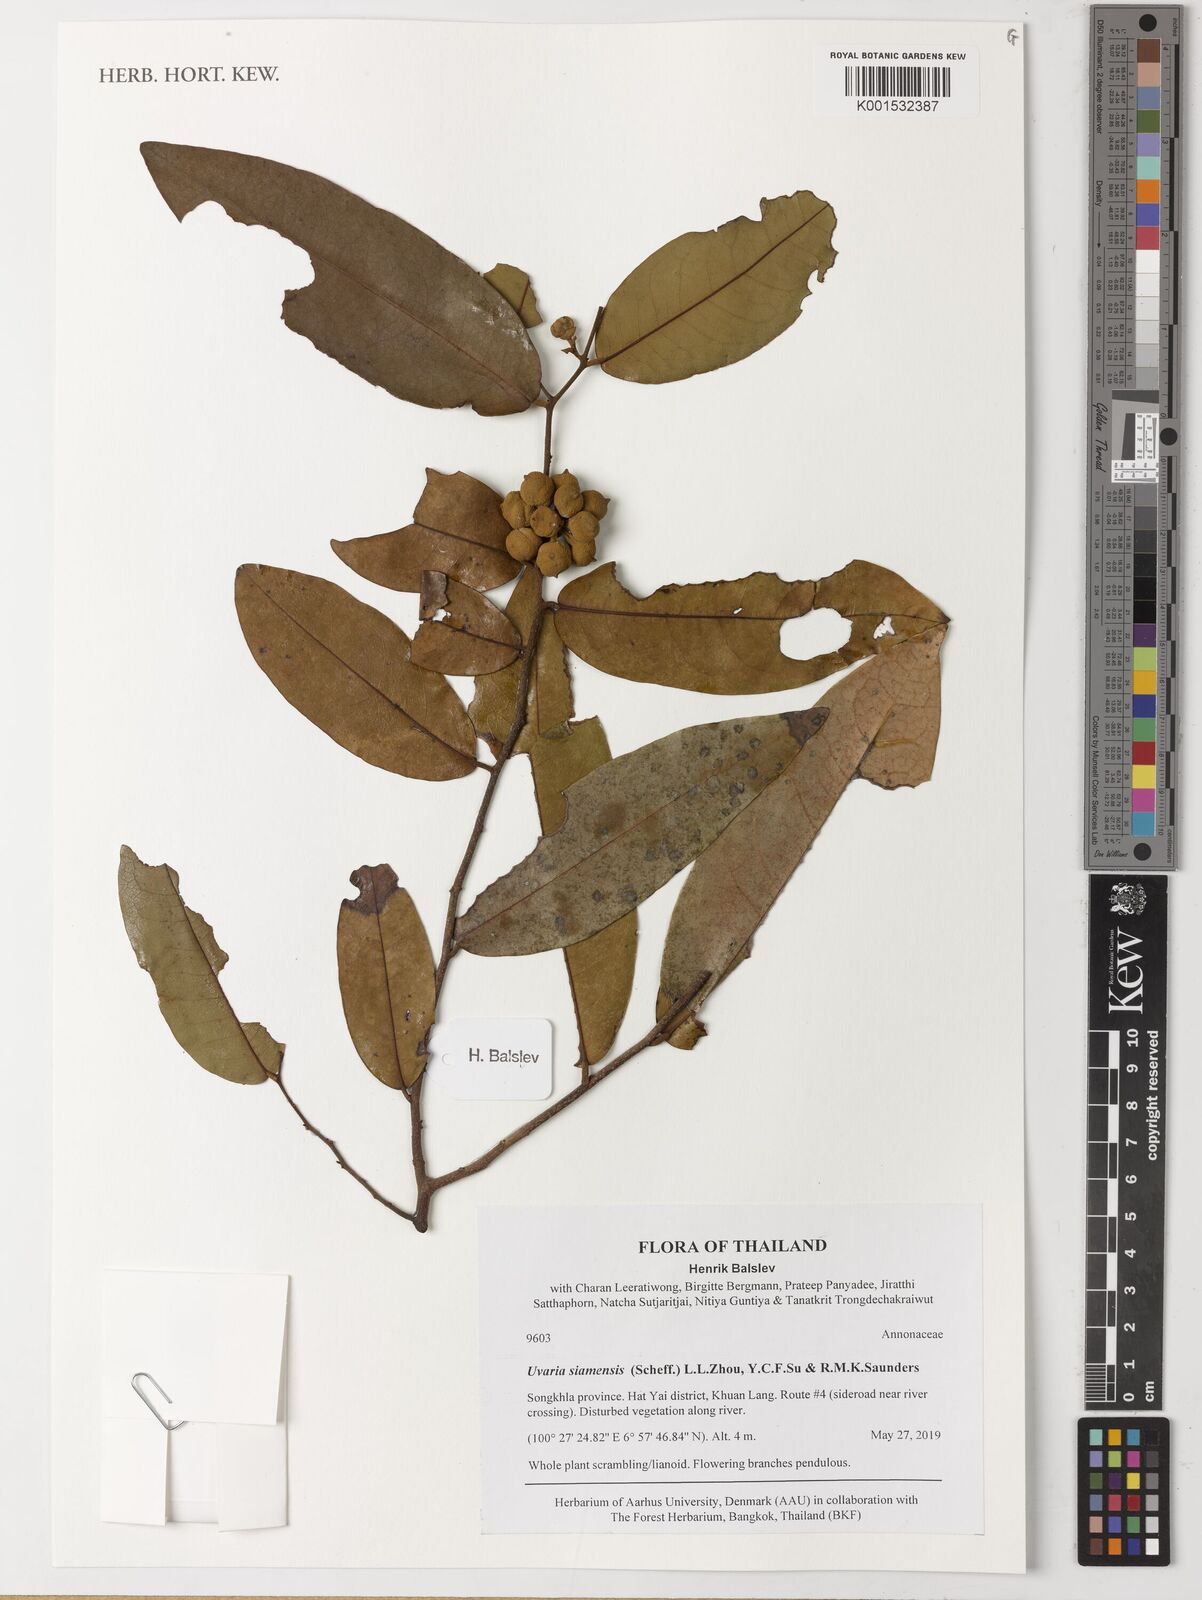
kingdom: Plantae
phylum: Tracheophyta
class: Magnoliopsida
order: Magnoliales
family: Annonaceae
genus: Uvaria
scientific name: Uvaria siamensis
